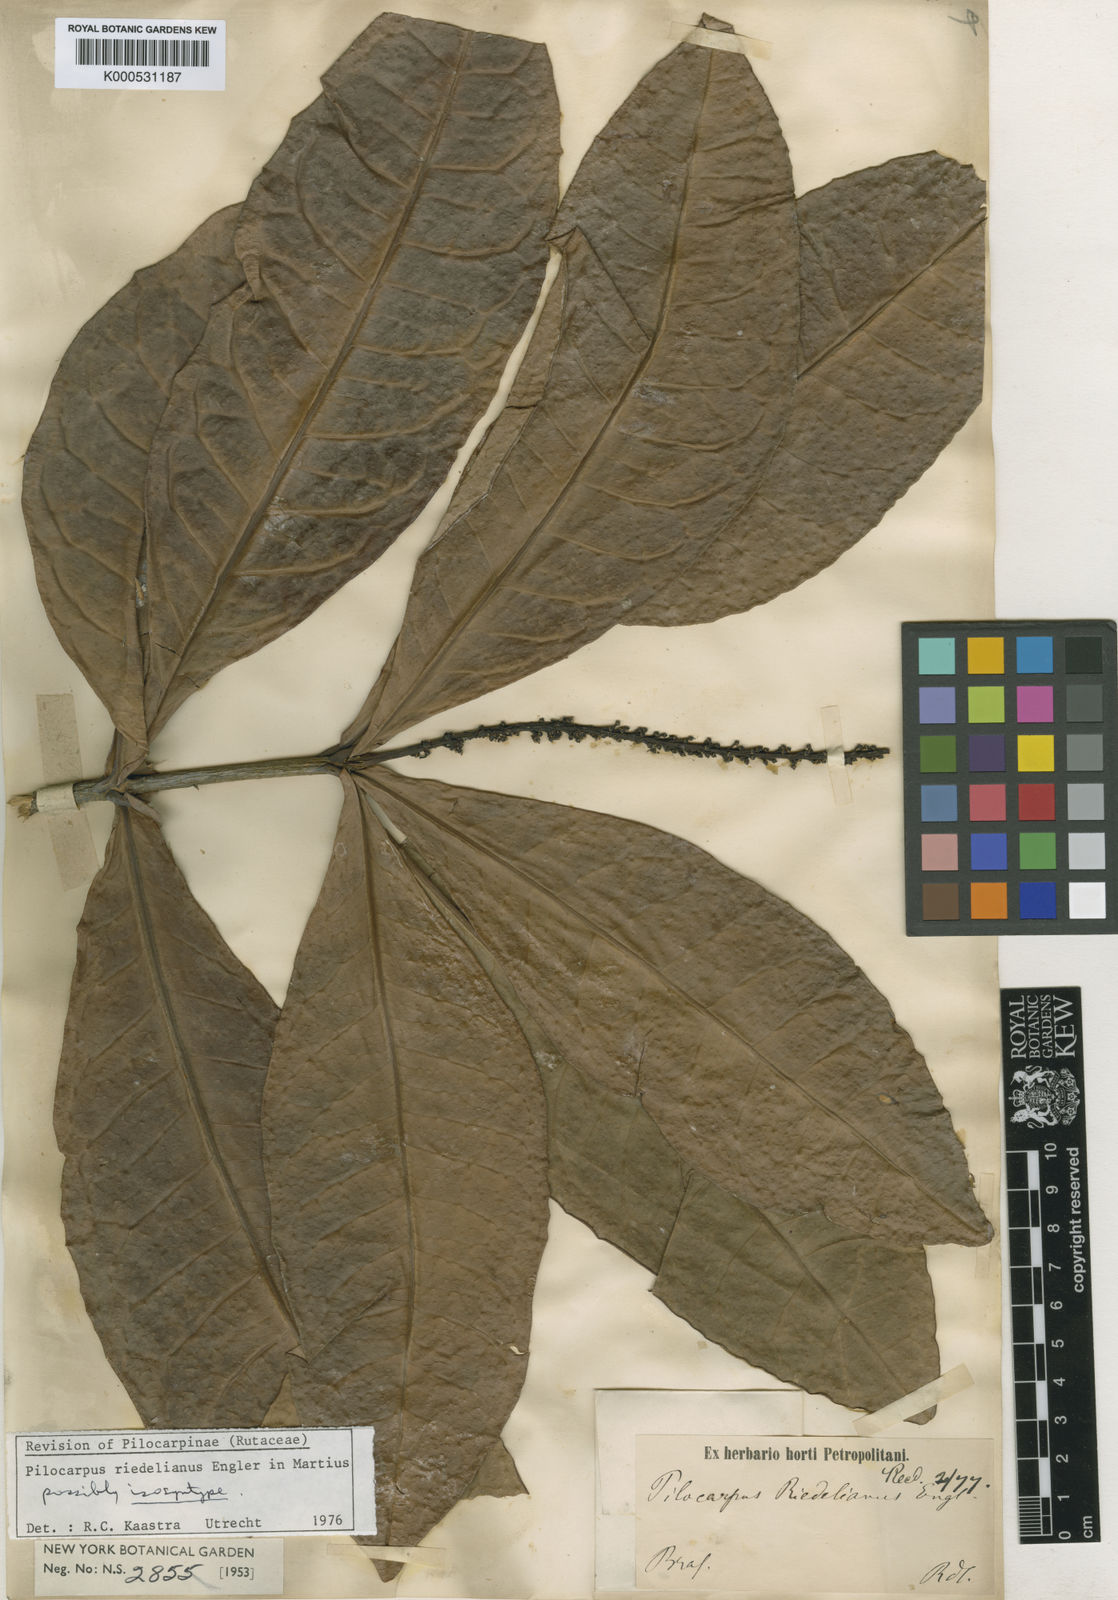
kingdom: Plantae
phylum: Tracheophyta
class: Magnoliopsida
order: Sapindales
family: Rutaceae
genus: Pilocarpus
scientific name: Pilocarpus riedelianus
